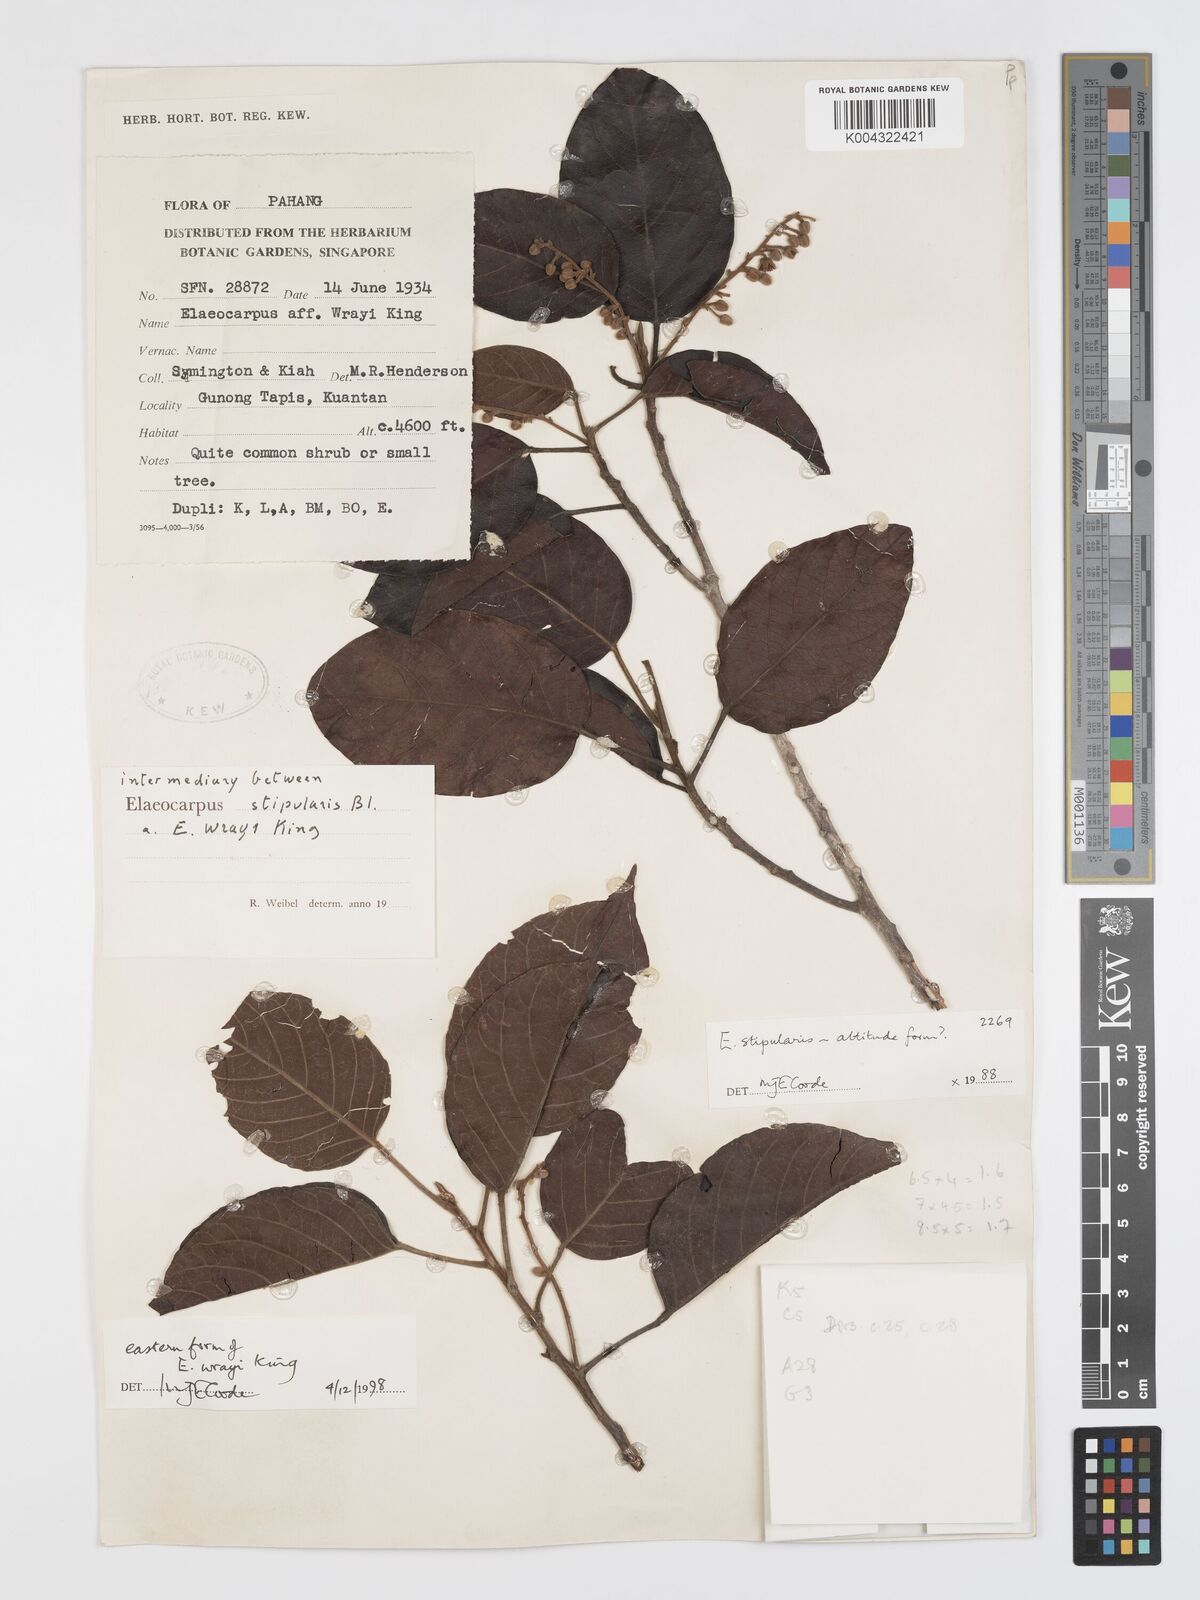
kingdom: Plantae
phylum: Tracheophyta
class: Magnoliopsida
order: Oxalidales
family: Elaeocarpaceae
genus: Elaeocarpus
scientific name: Elaeocarpus nitidus
